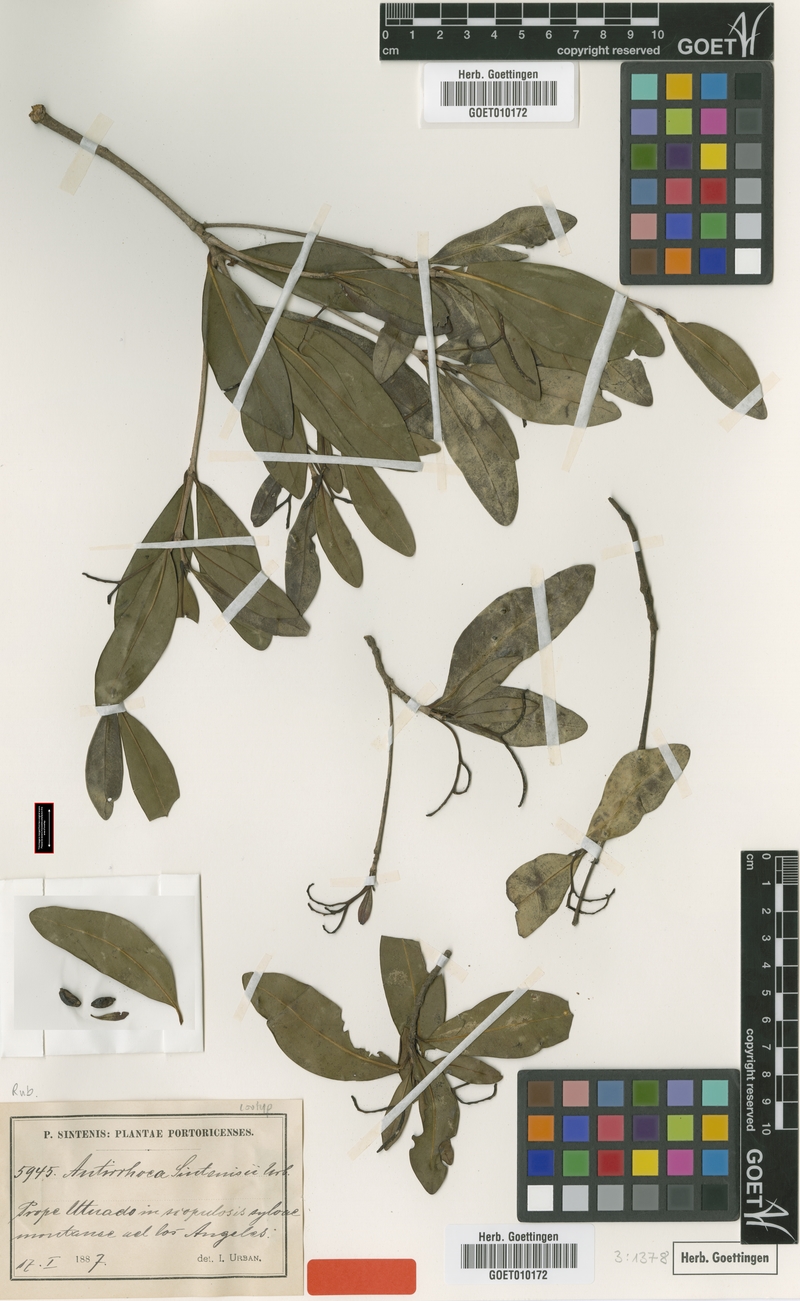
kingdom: Plantae
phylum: Tracheophyta
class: Magnoliopsida
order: Gentianales
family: Rubiaceae
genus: Stenostomum
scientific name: Stenostomum sintenisii
